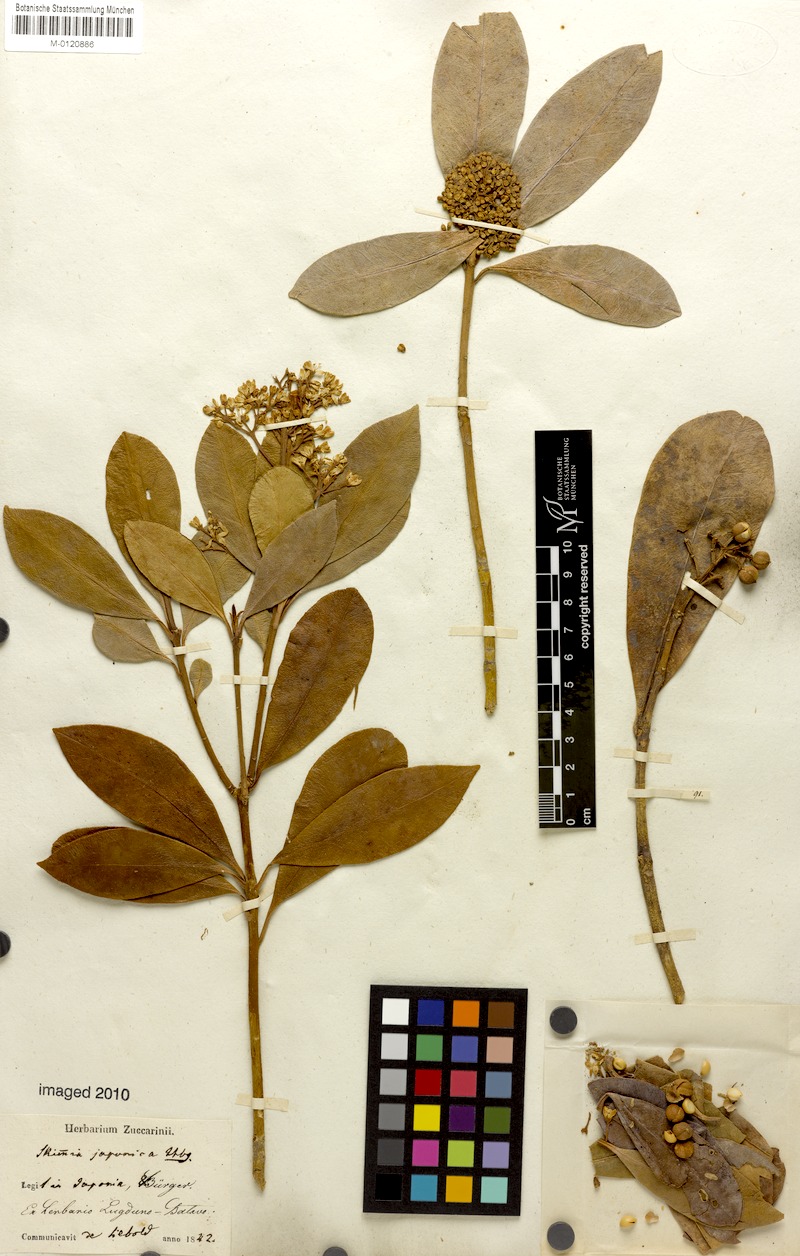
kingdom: Plantae
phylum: Tracheophyta
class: Magnoliopsida
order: Sapindales
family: Rutaceae
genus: Skimmia
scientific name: Skimmia japonica
